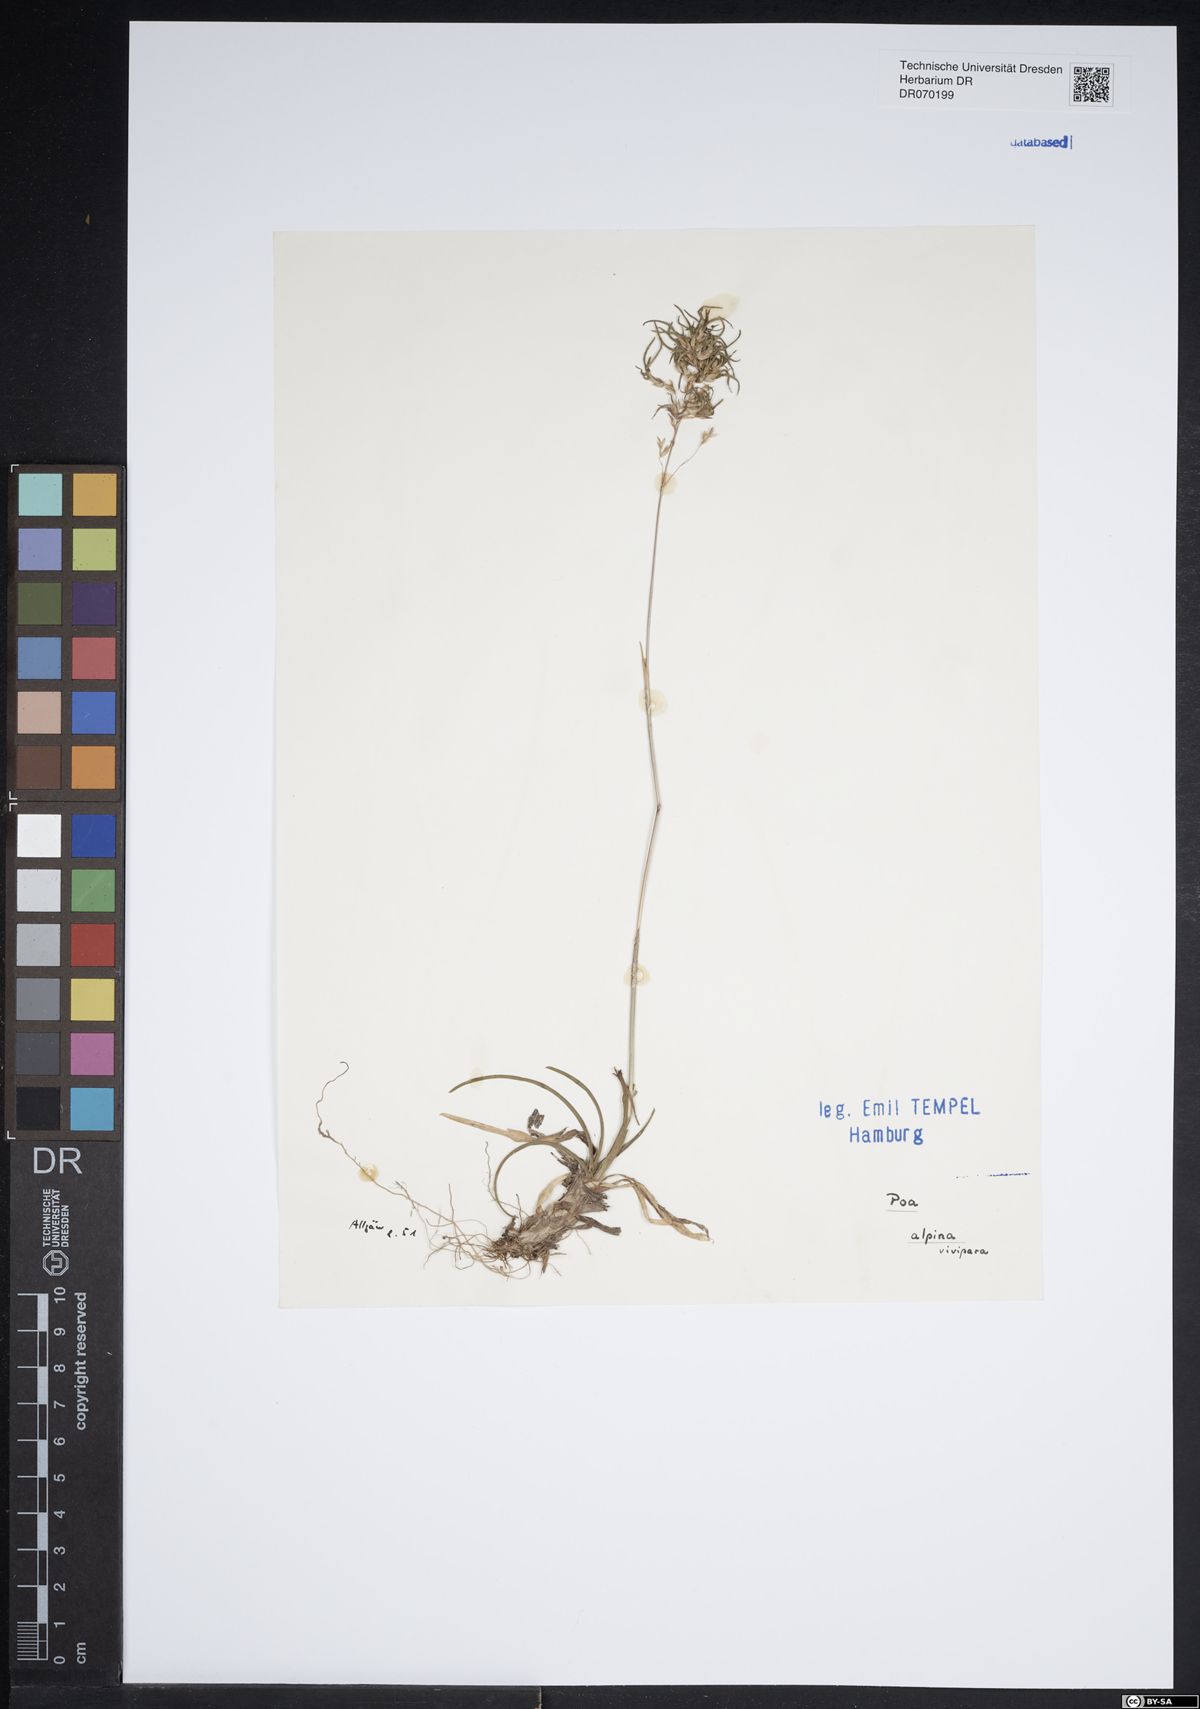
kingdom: Plantae
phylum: Tracheophyta
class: Liliopsida
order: Poales
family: Poaceae
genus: Poa
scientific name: Poa alpina
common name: Alpine bluegrass
